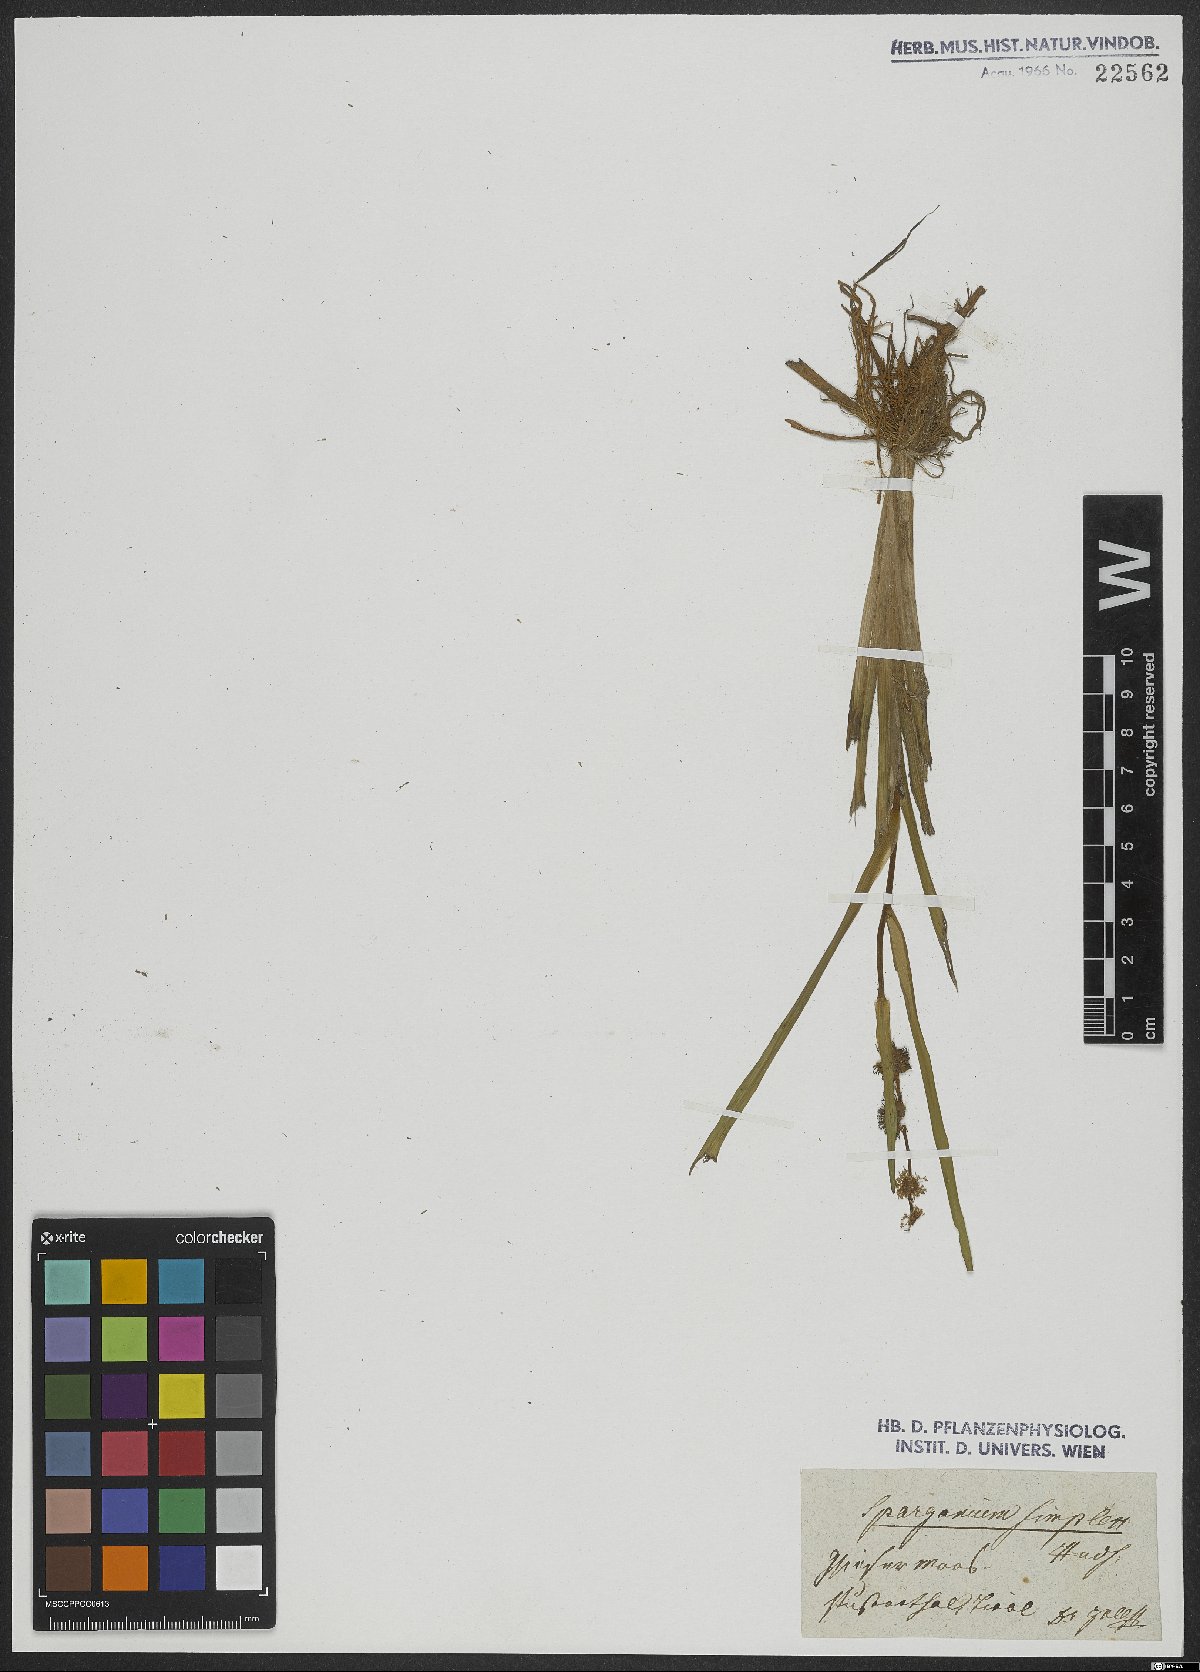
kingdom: Plantae
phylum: Tracheophyta
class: Liliopsida
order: Poales
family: Typhaceae
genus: Sparganium
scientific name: Sparganium emersum
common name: Unbranched bur-reed
